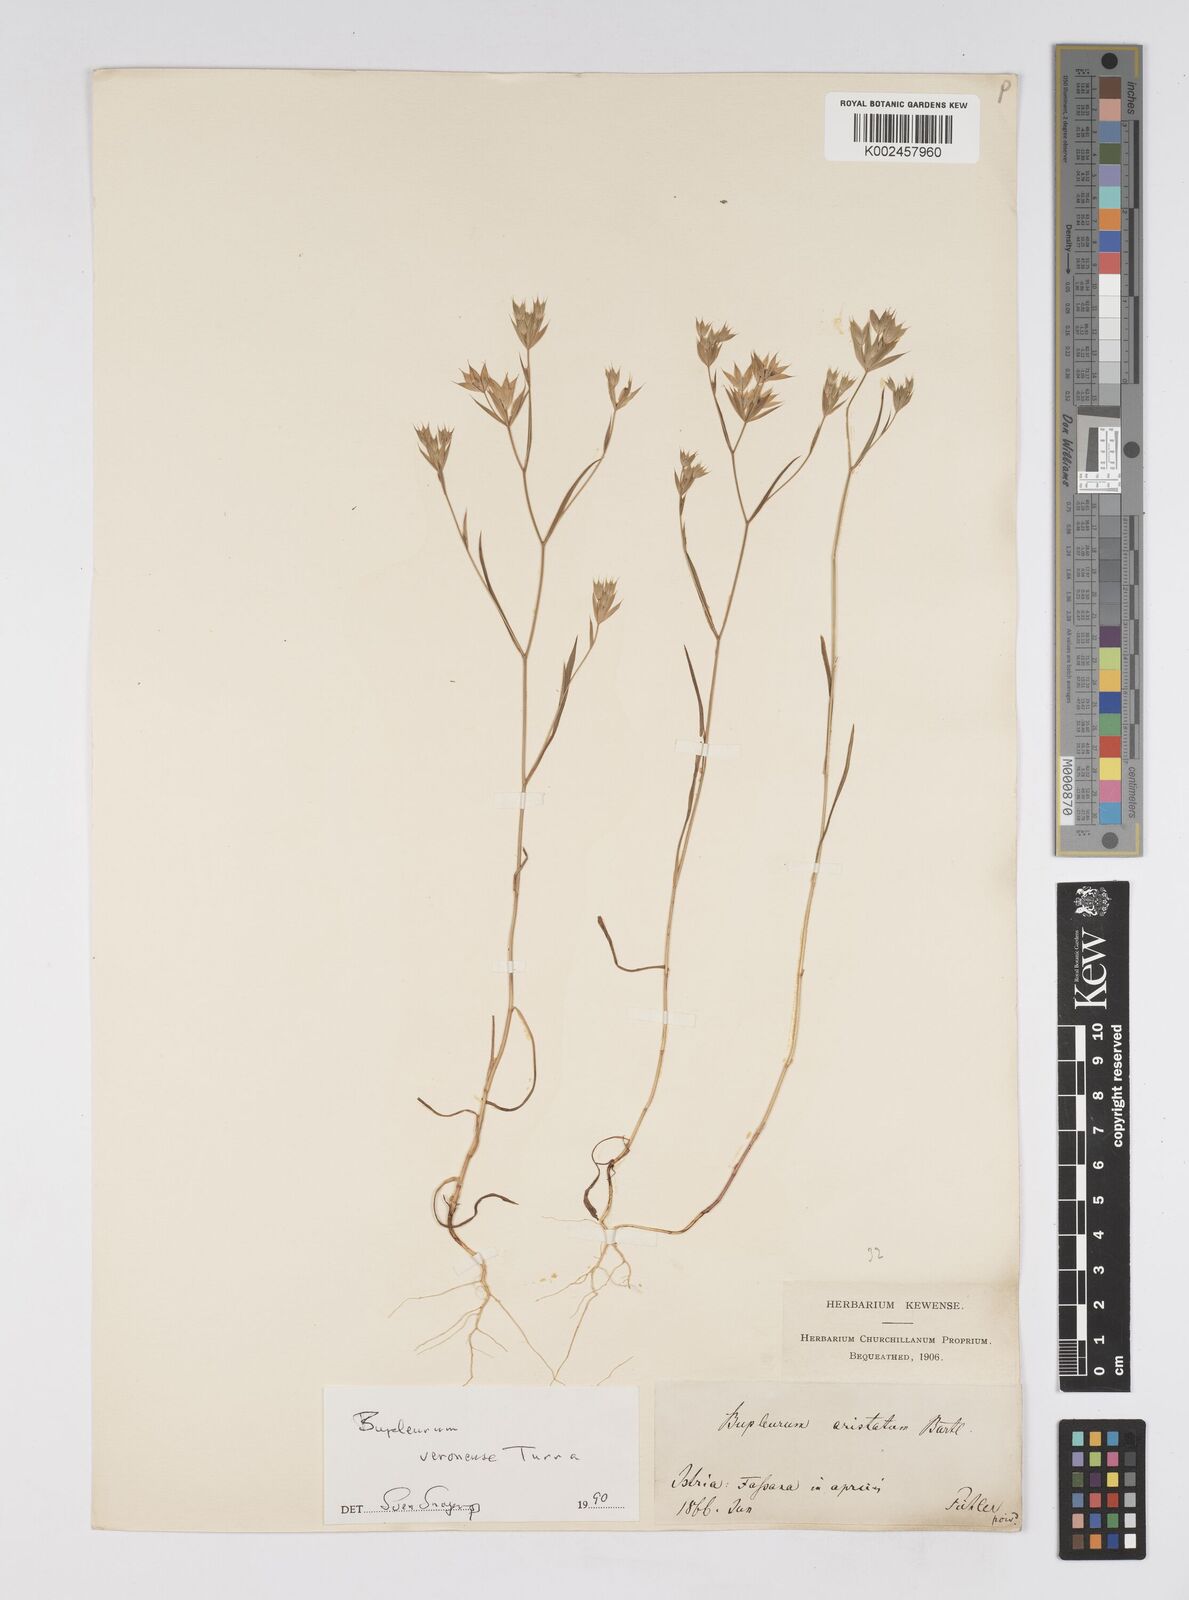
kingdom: Plantae
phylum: Tracheophyta
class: Magnoliopsida
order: Apiales
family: Apiaceae
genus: Bupleurum
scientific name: Bupleurum glumaceum
